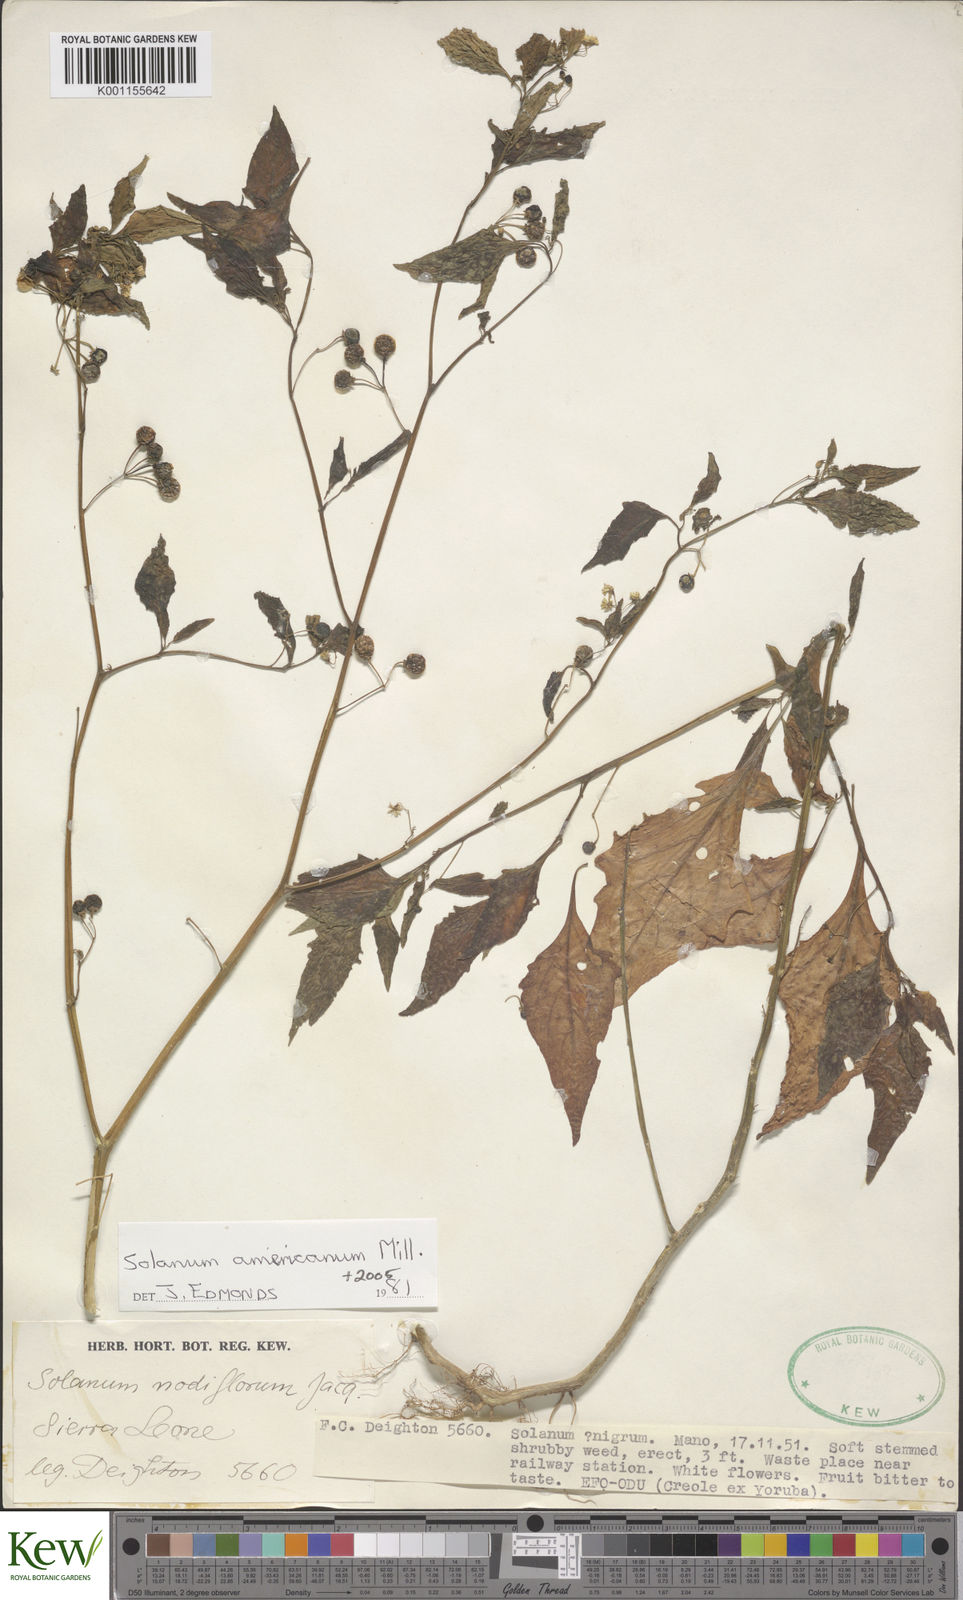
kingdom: Plantae
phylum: Tracheophyta
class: Magnoliopsida
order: Solanales
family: Solanaceae
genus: Solanum
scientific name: Solanum americanum
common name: American black nightshade
